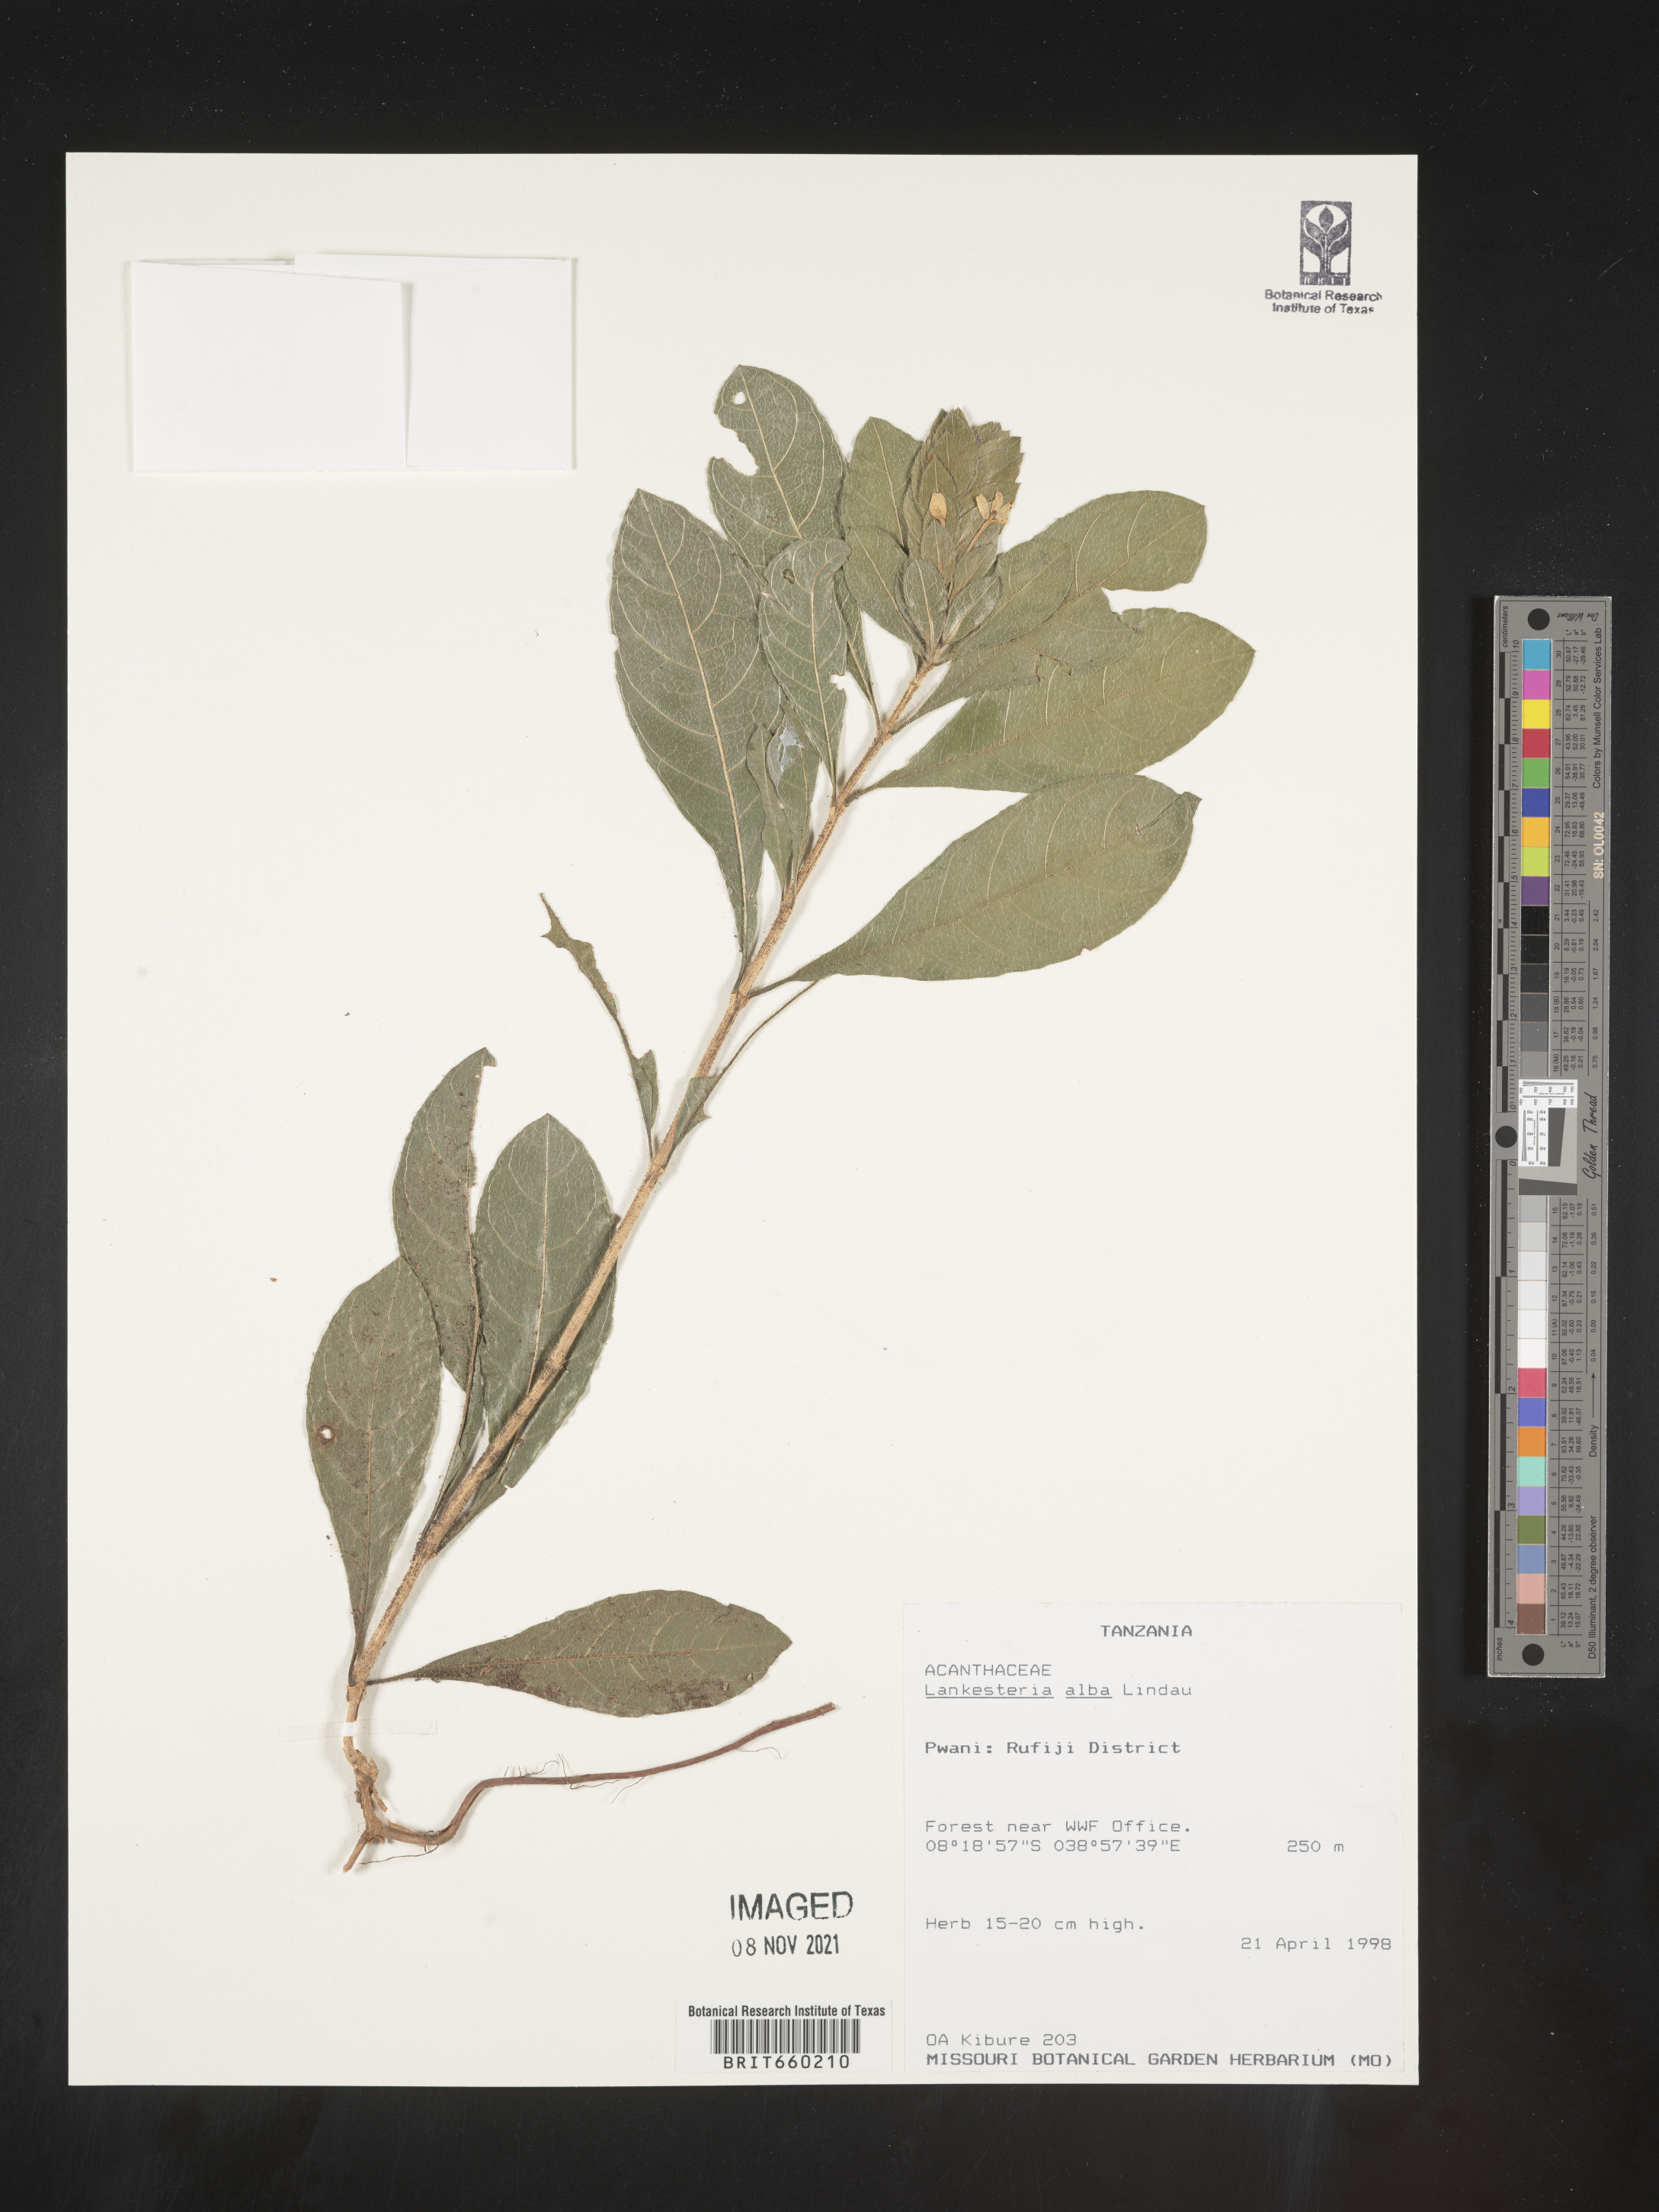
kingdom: Plantae
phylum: Tracheophyta
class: Magnoliopsida
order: Lamiales
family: Acanthaceae
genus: Lankesteria
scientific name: Lankesteria
